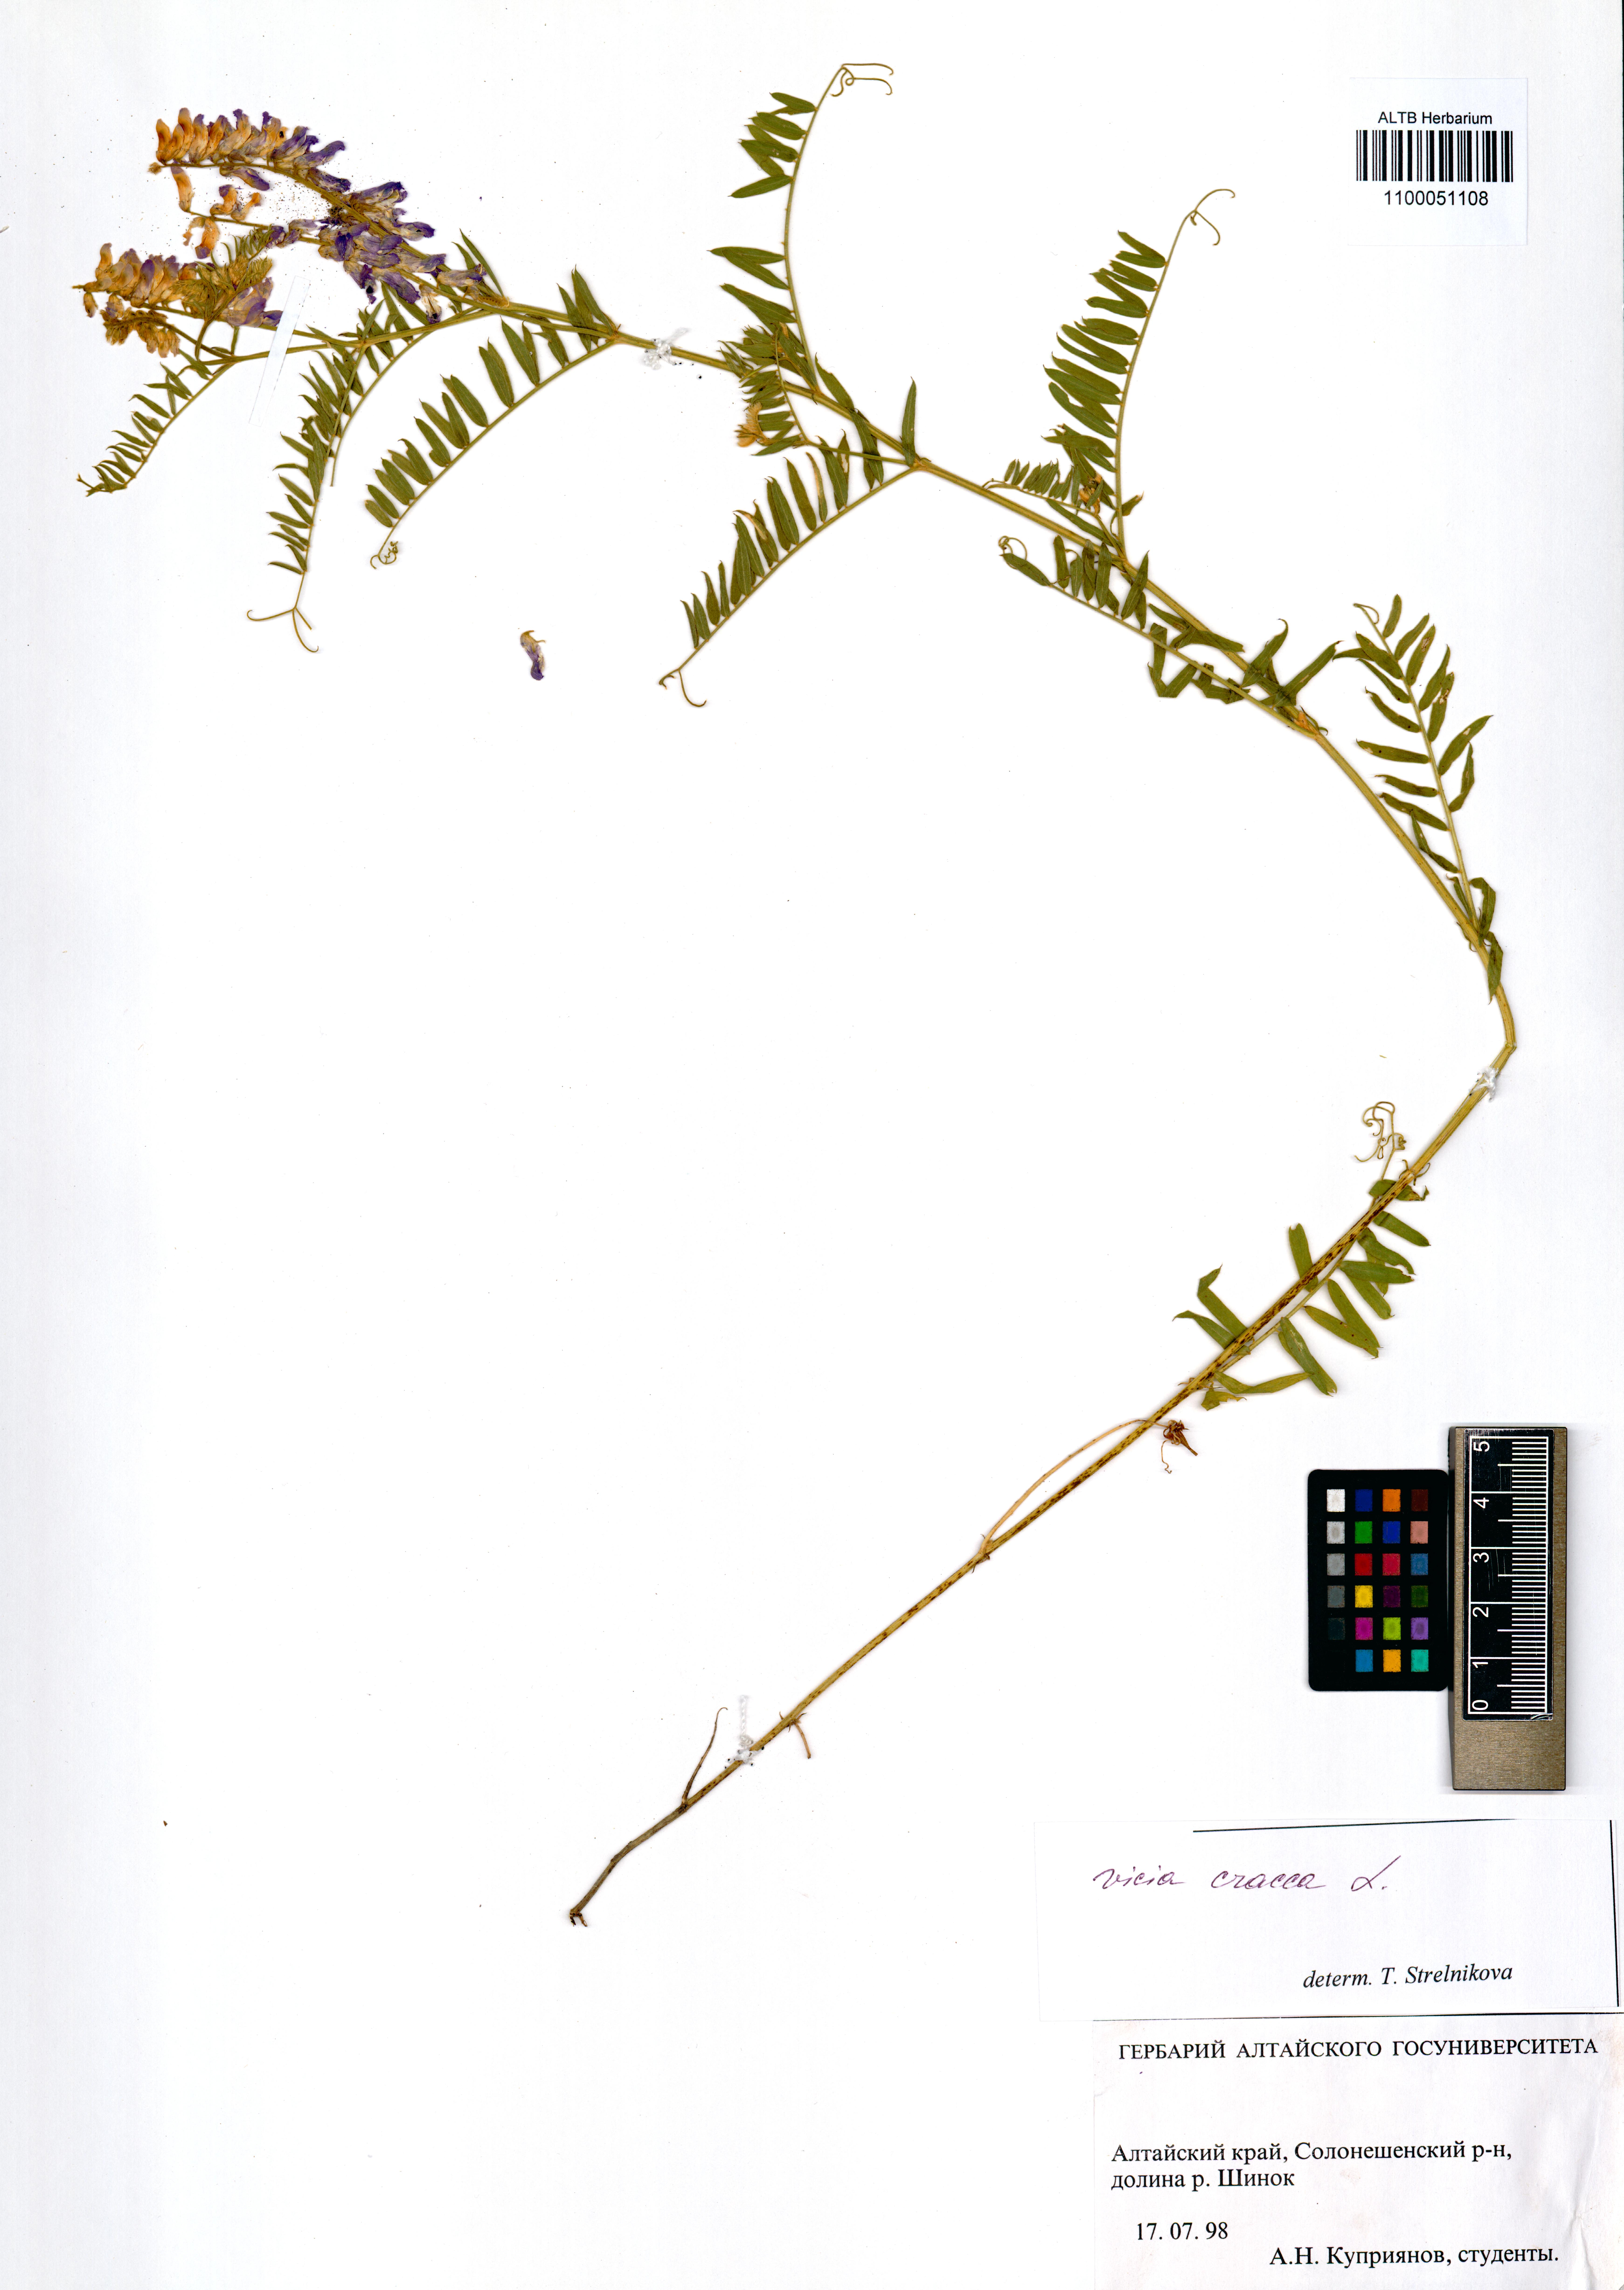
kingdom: Plantae
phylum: Tracheophyta
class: Magnoliopsida
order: Fabales
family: Fabaceae
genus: Vicia
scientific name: Vicia cracca
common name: Bird vetch
